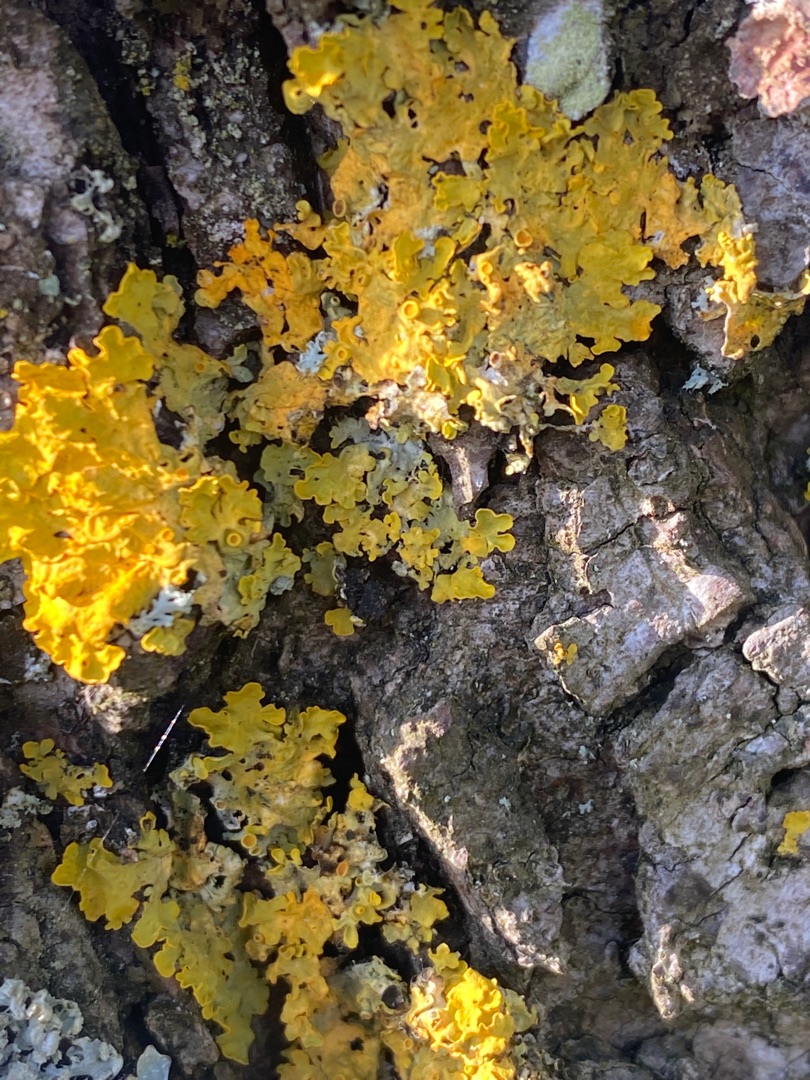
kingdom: Fungi
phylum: Ascomycota
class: Lecanoromycetes
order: Teloschistales
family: Teloschistaceae
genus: Xanthoria
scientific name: Xanthoria parietina
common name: Almindelig væggelav
